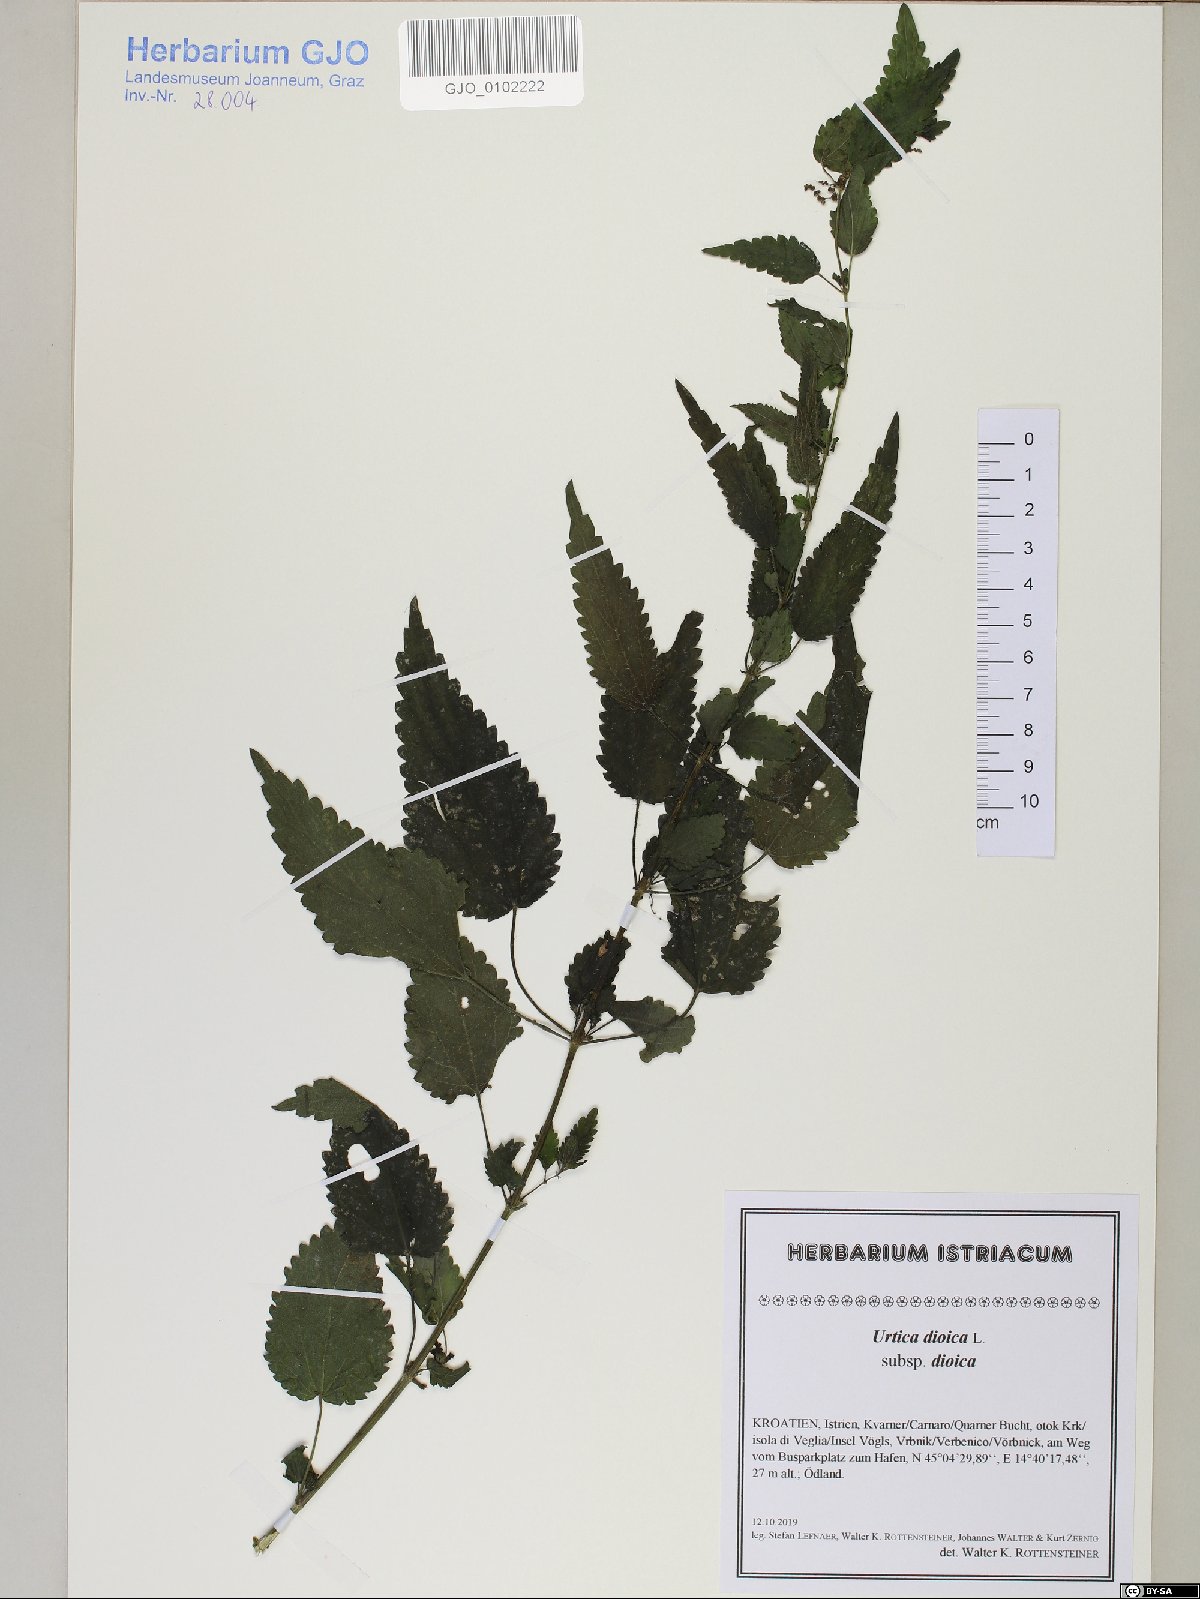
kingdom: Plantae
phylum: Tracheophyta
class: Magnoliopsida
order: Rosales
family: Urticaceae
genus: Urtica
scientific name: Urtica dioica
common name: Common nettle
